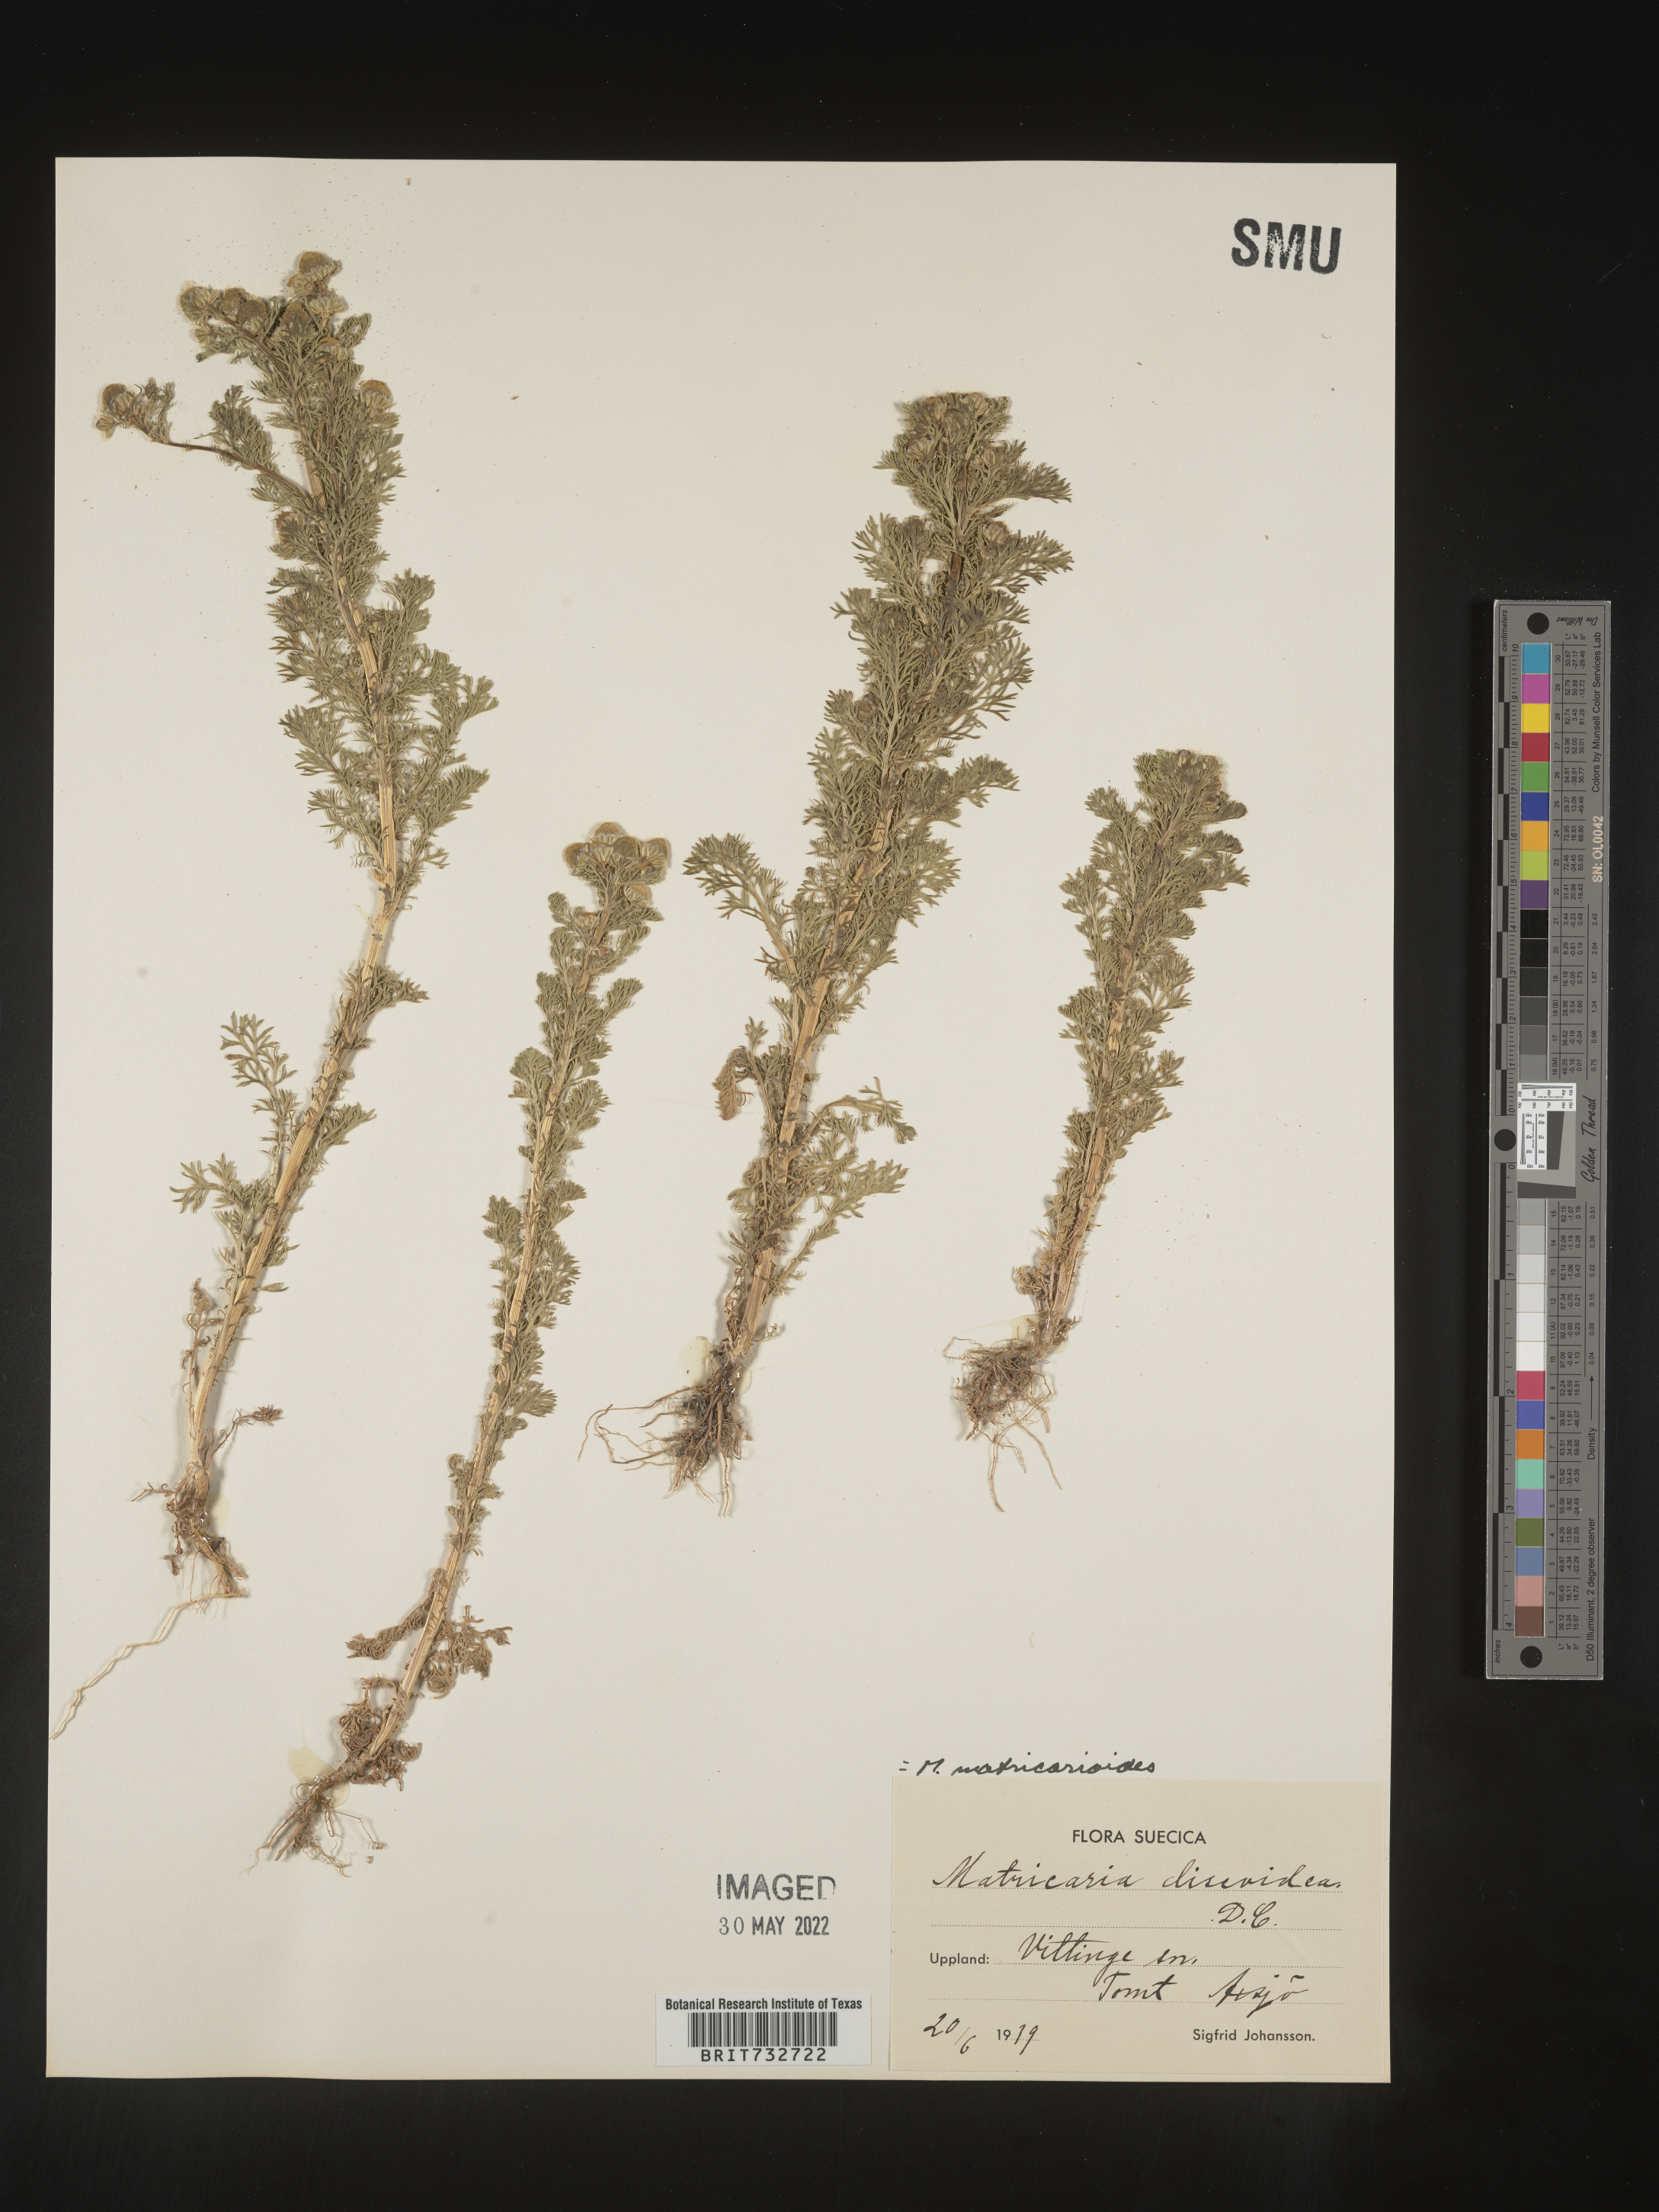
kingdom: Plantae
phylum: Tracheophyta
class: Magnoliopsida
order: Asterales
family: Asteraceae
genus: Matricaria
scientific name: Matricaria
